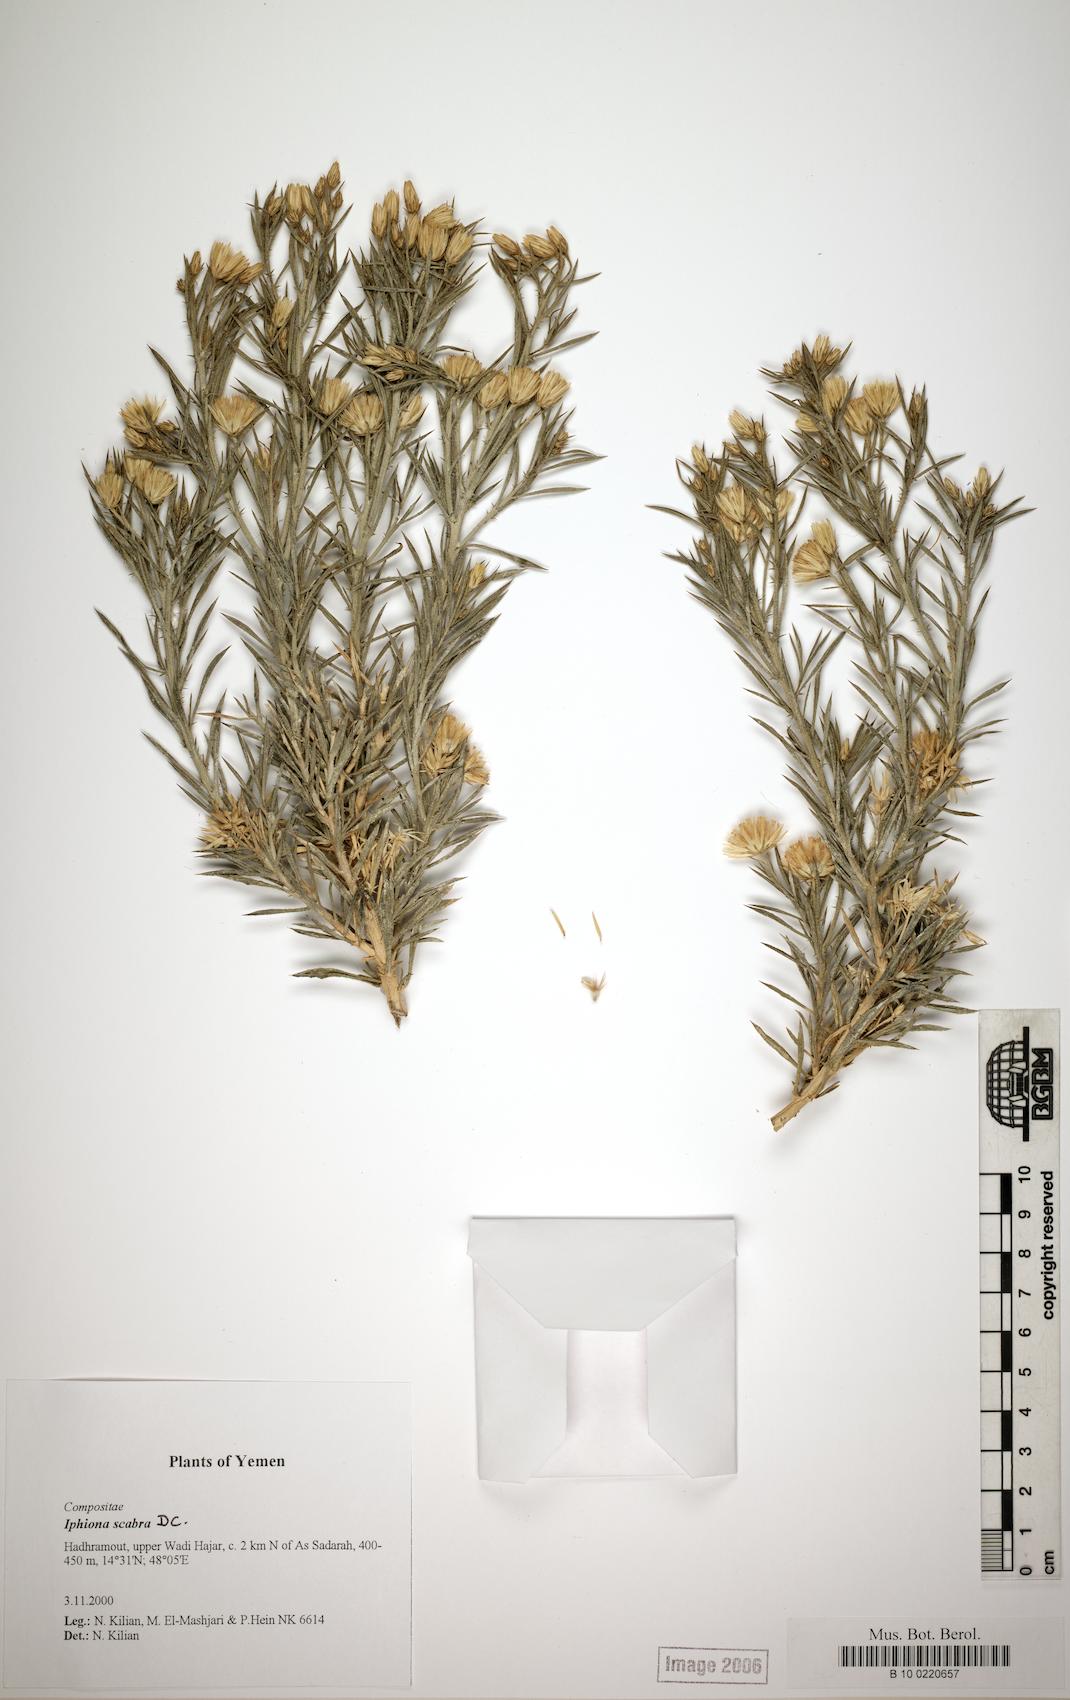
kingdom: Plantae
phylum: Tracheophyta
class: Magnoliopsida
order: Caryophyllales
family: Caryophyllaceae
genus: Arenaria
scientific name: Arenaria serpyllifolia
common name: Thyme-leaved sandwort
